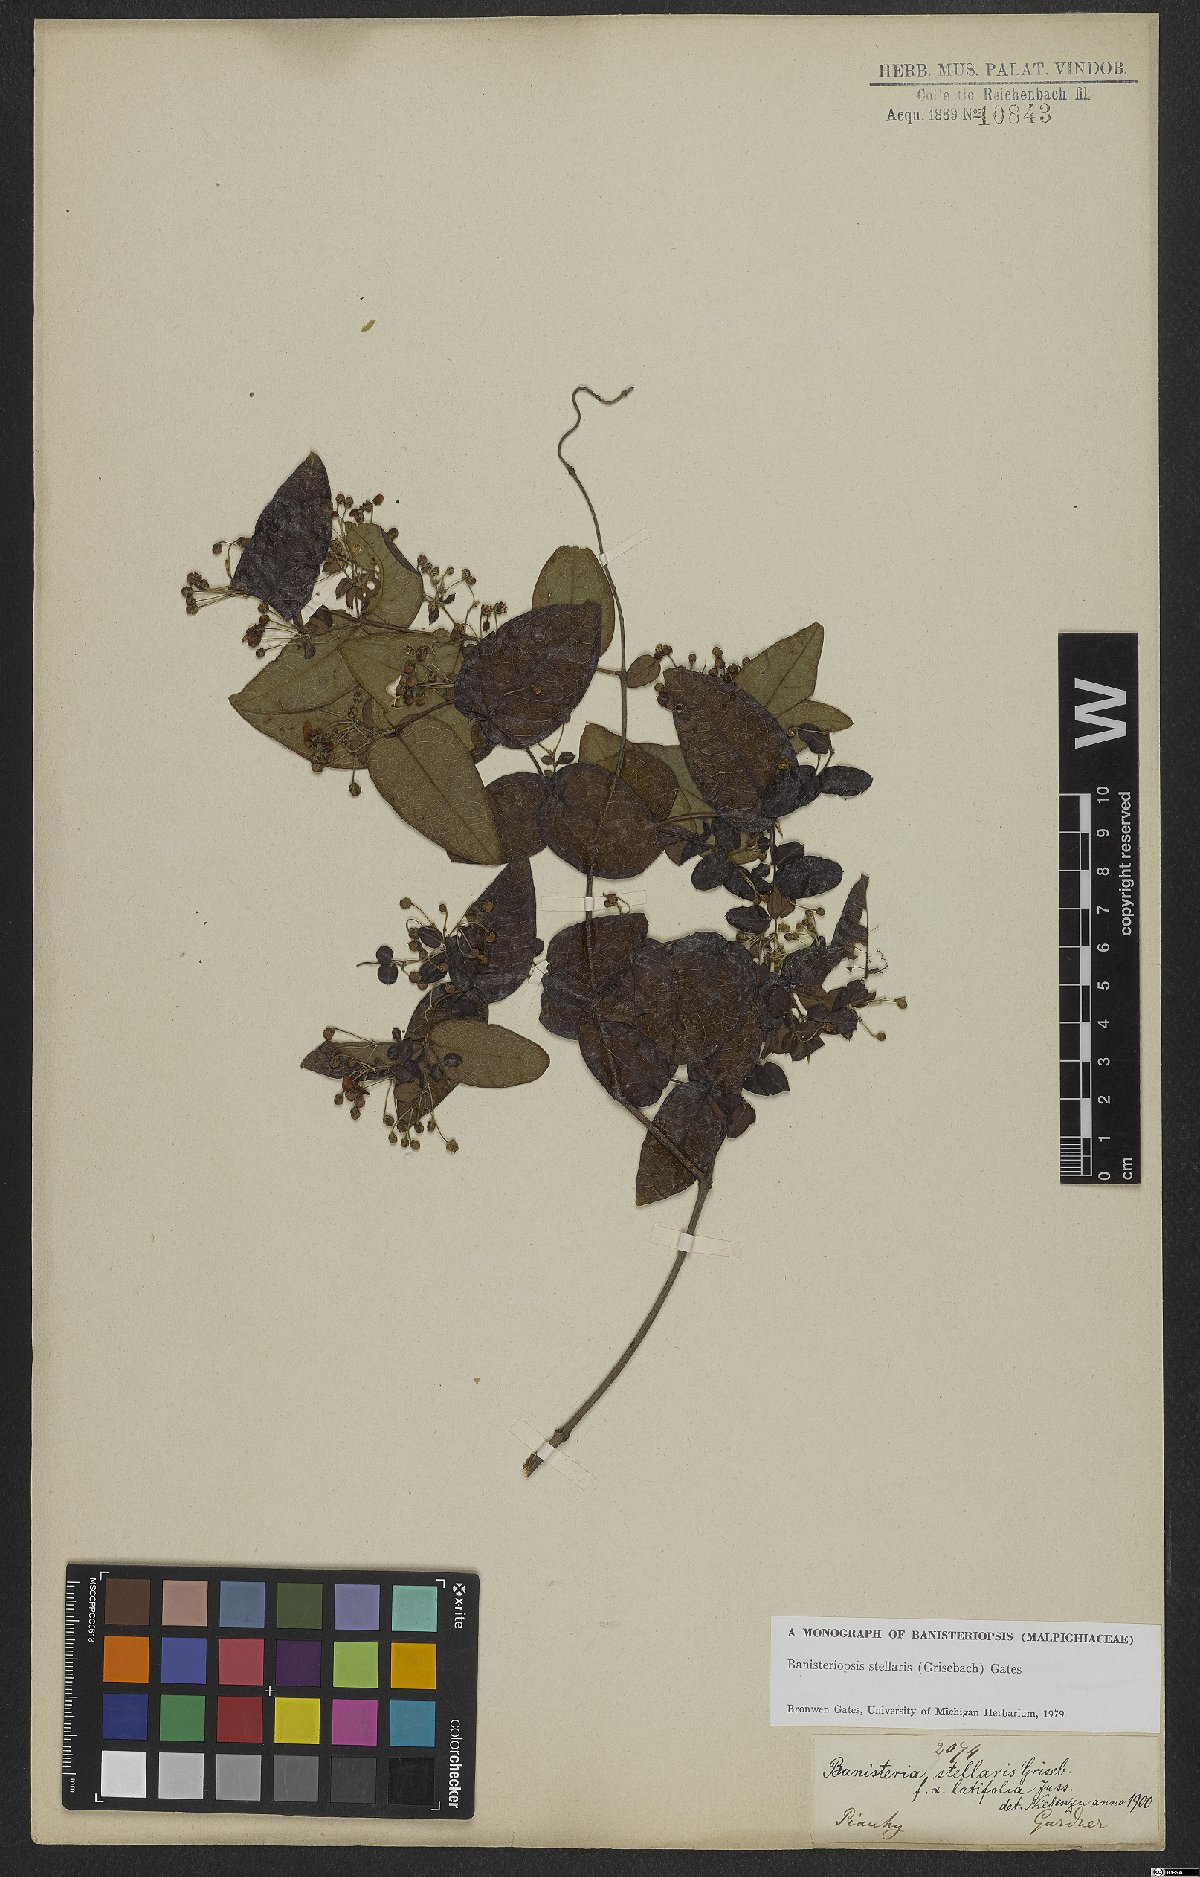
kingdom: Plantae
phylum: Tracheophyta
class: Magnoliopsida
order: Malpighiales
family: Malpighiaceae
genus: Banisteriopsis
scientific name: Banisteriopsis stellaris
